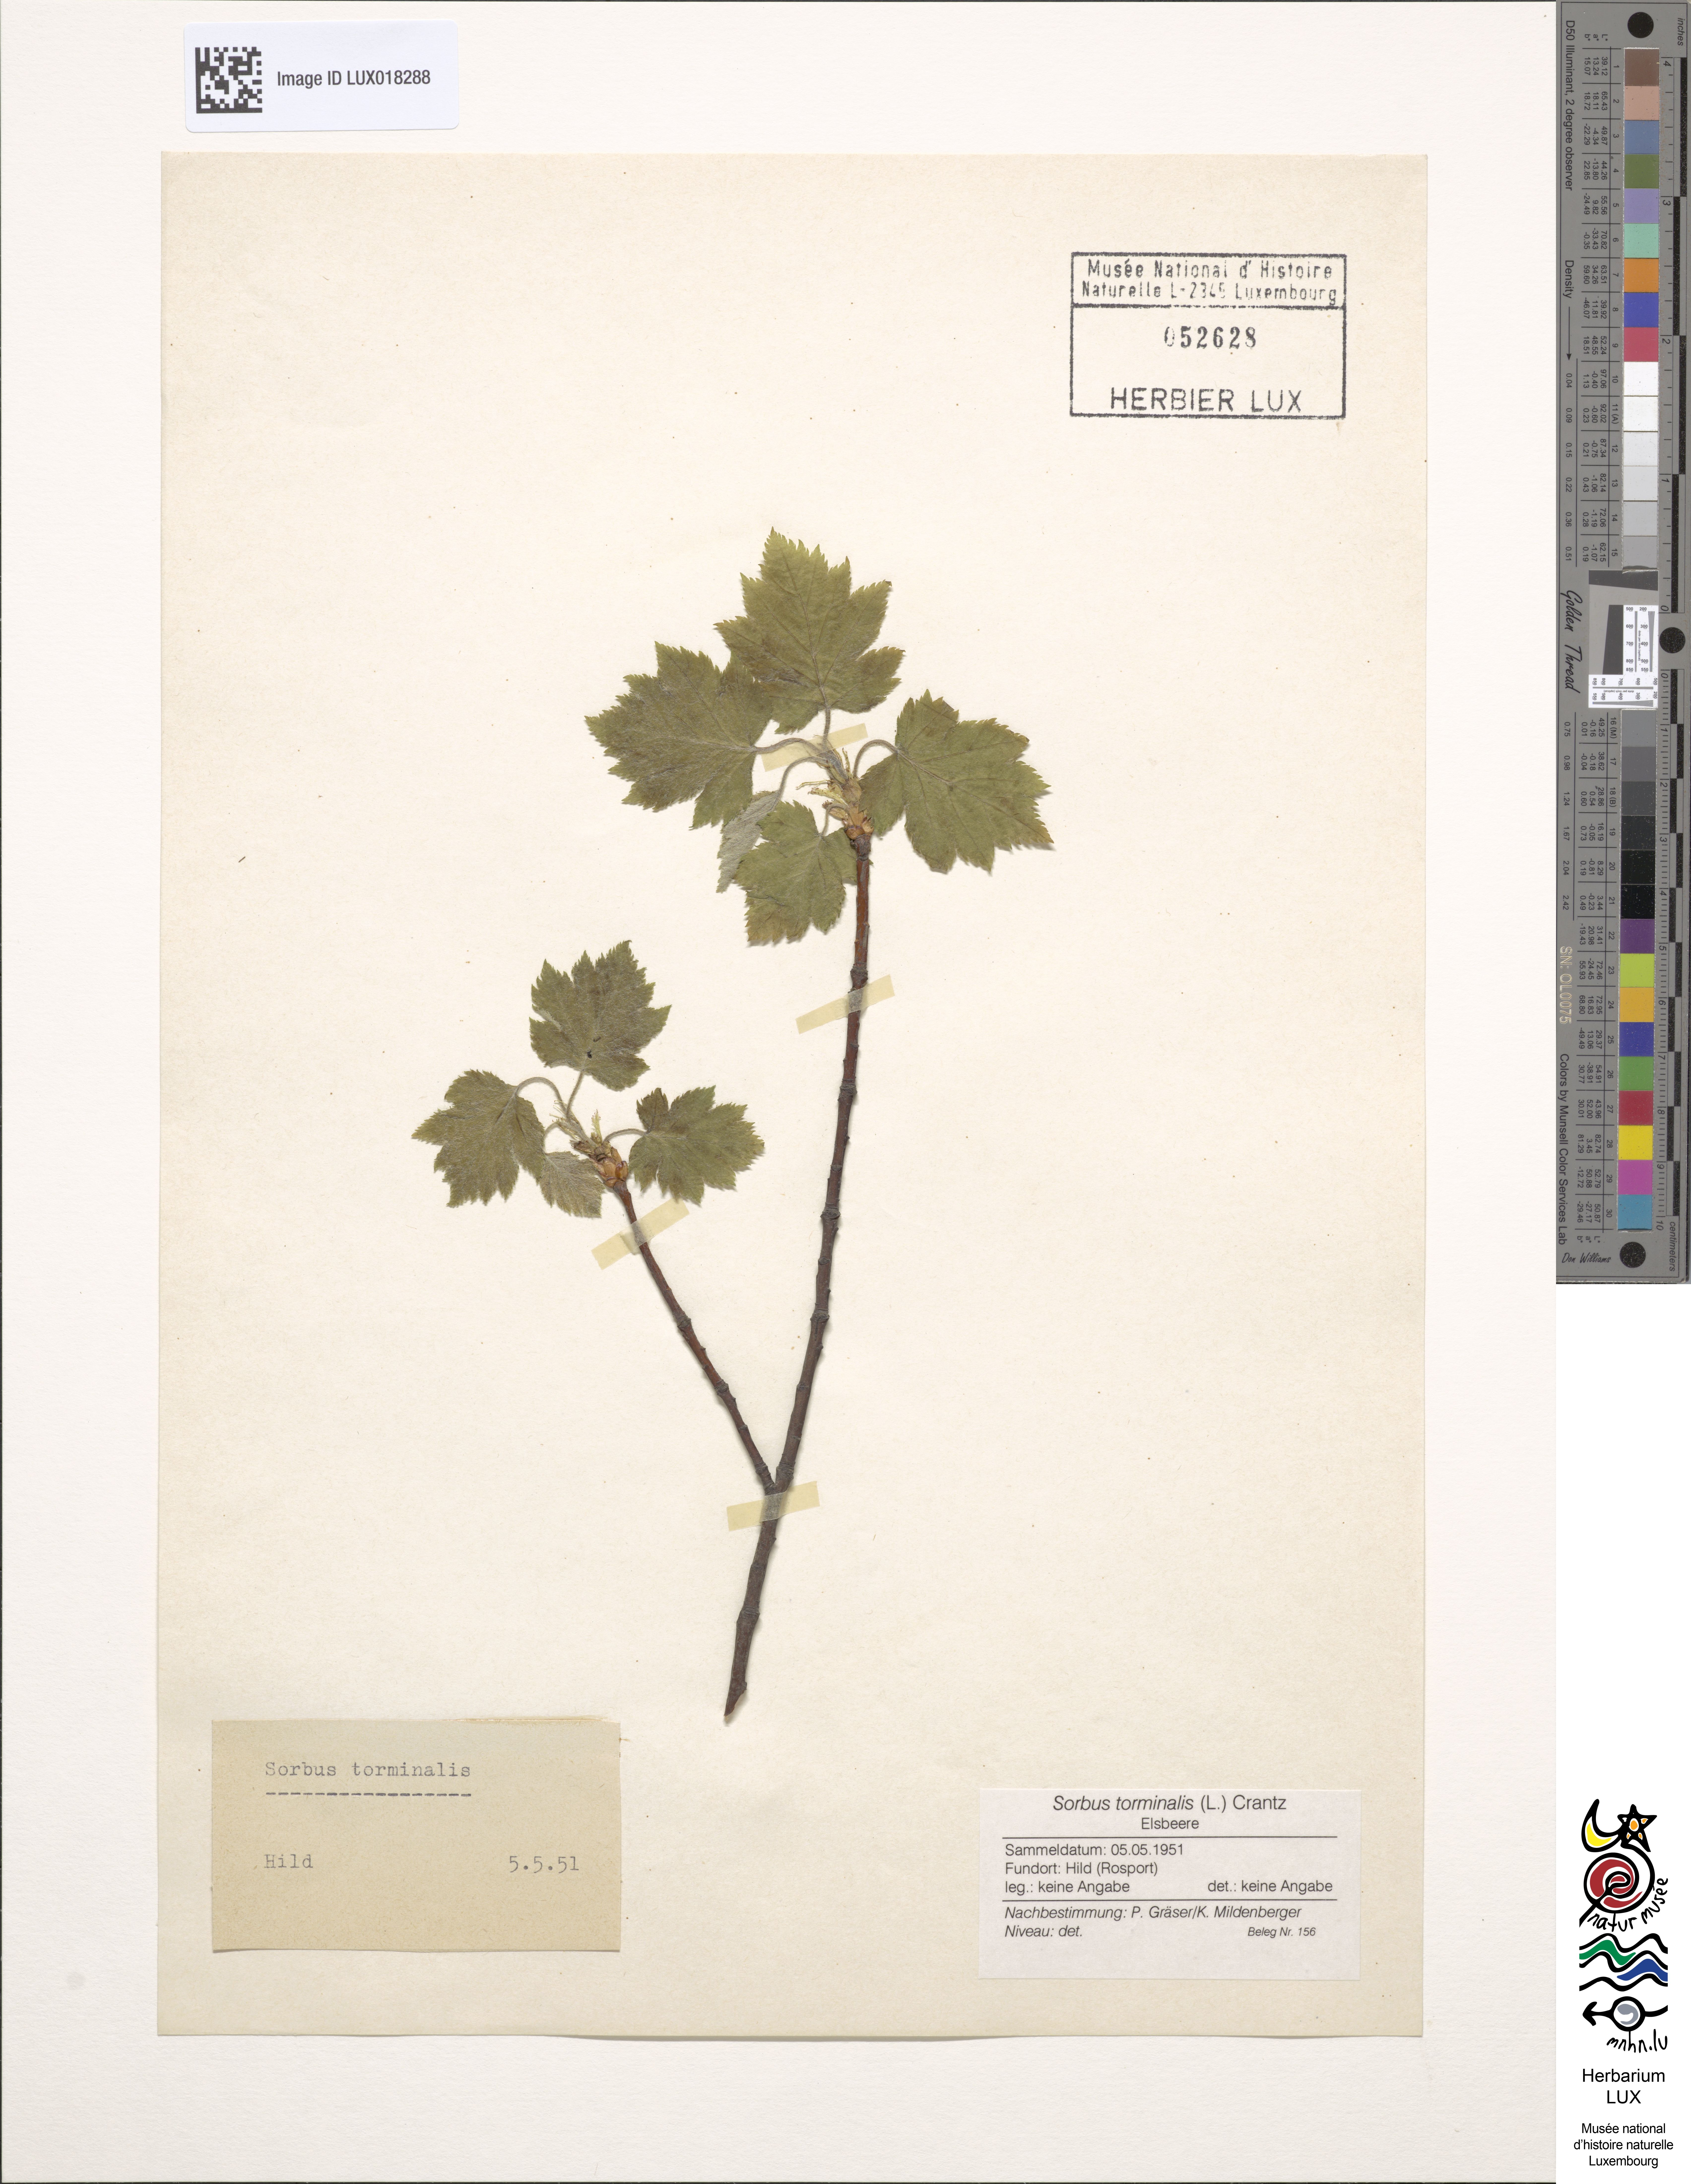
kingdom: Plantae
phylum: Tracheophyta
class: Magnoliopsida
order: Rosales
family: Rosaceae
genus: Torminalis
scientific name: Torminalis glaberrima
